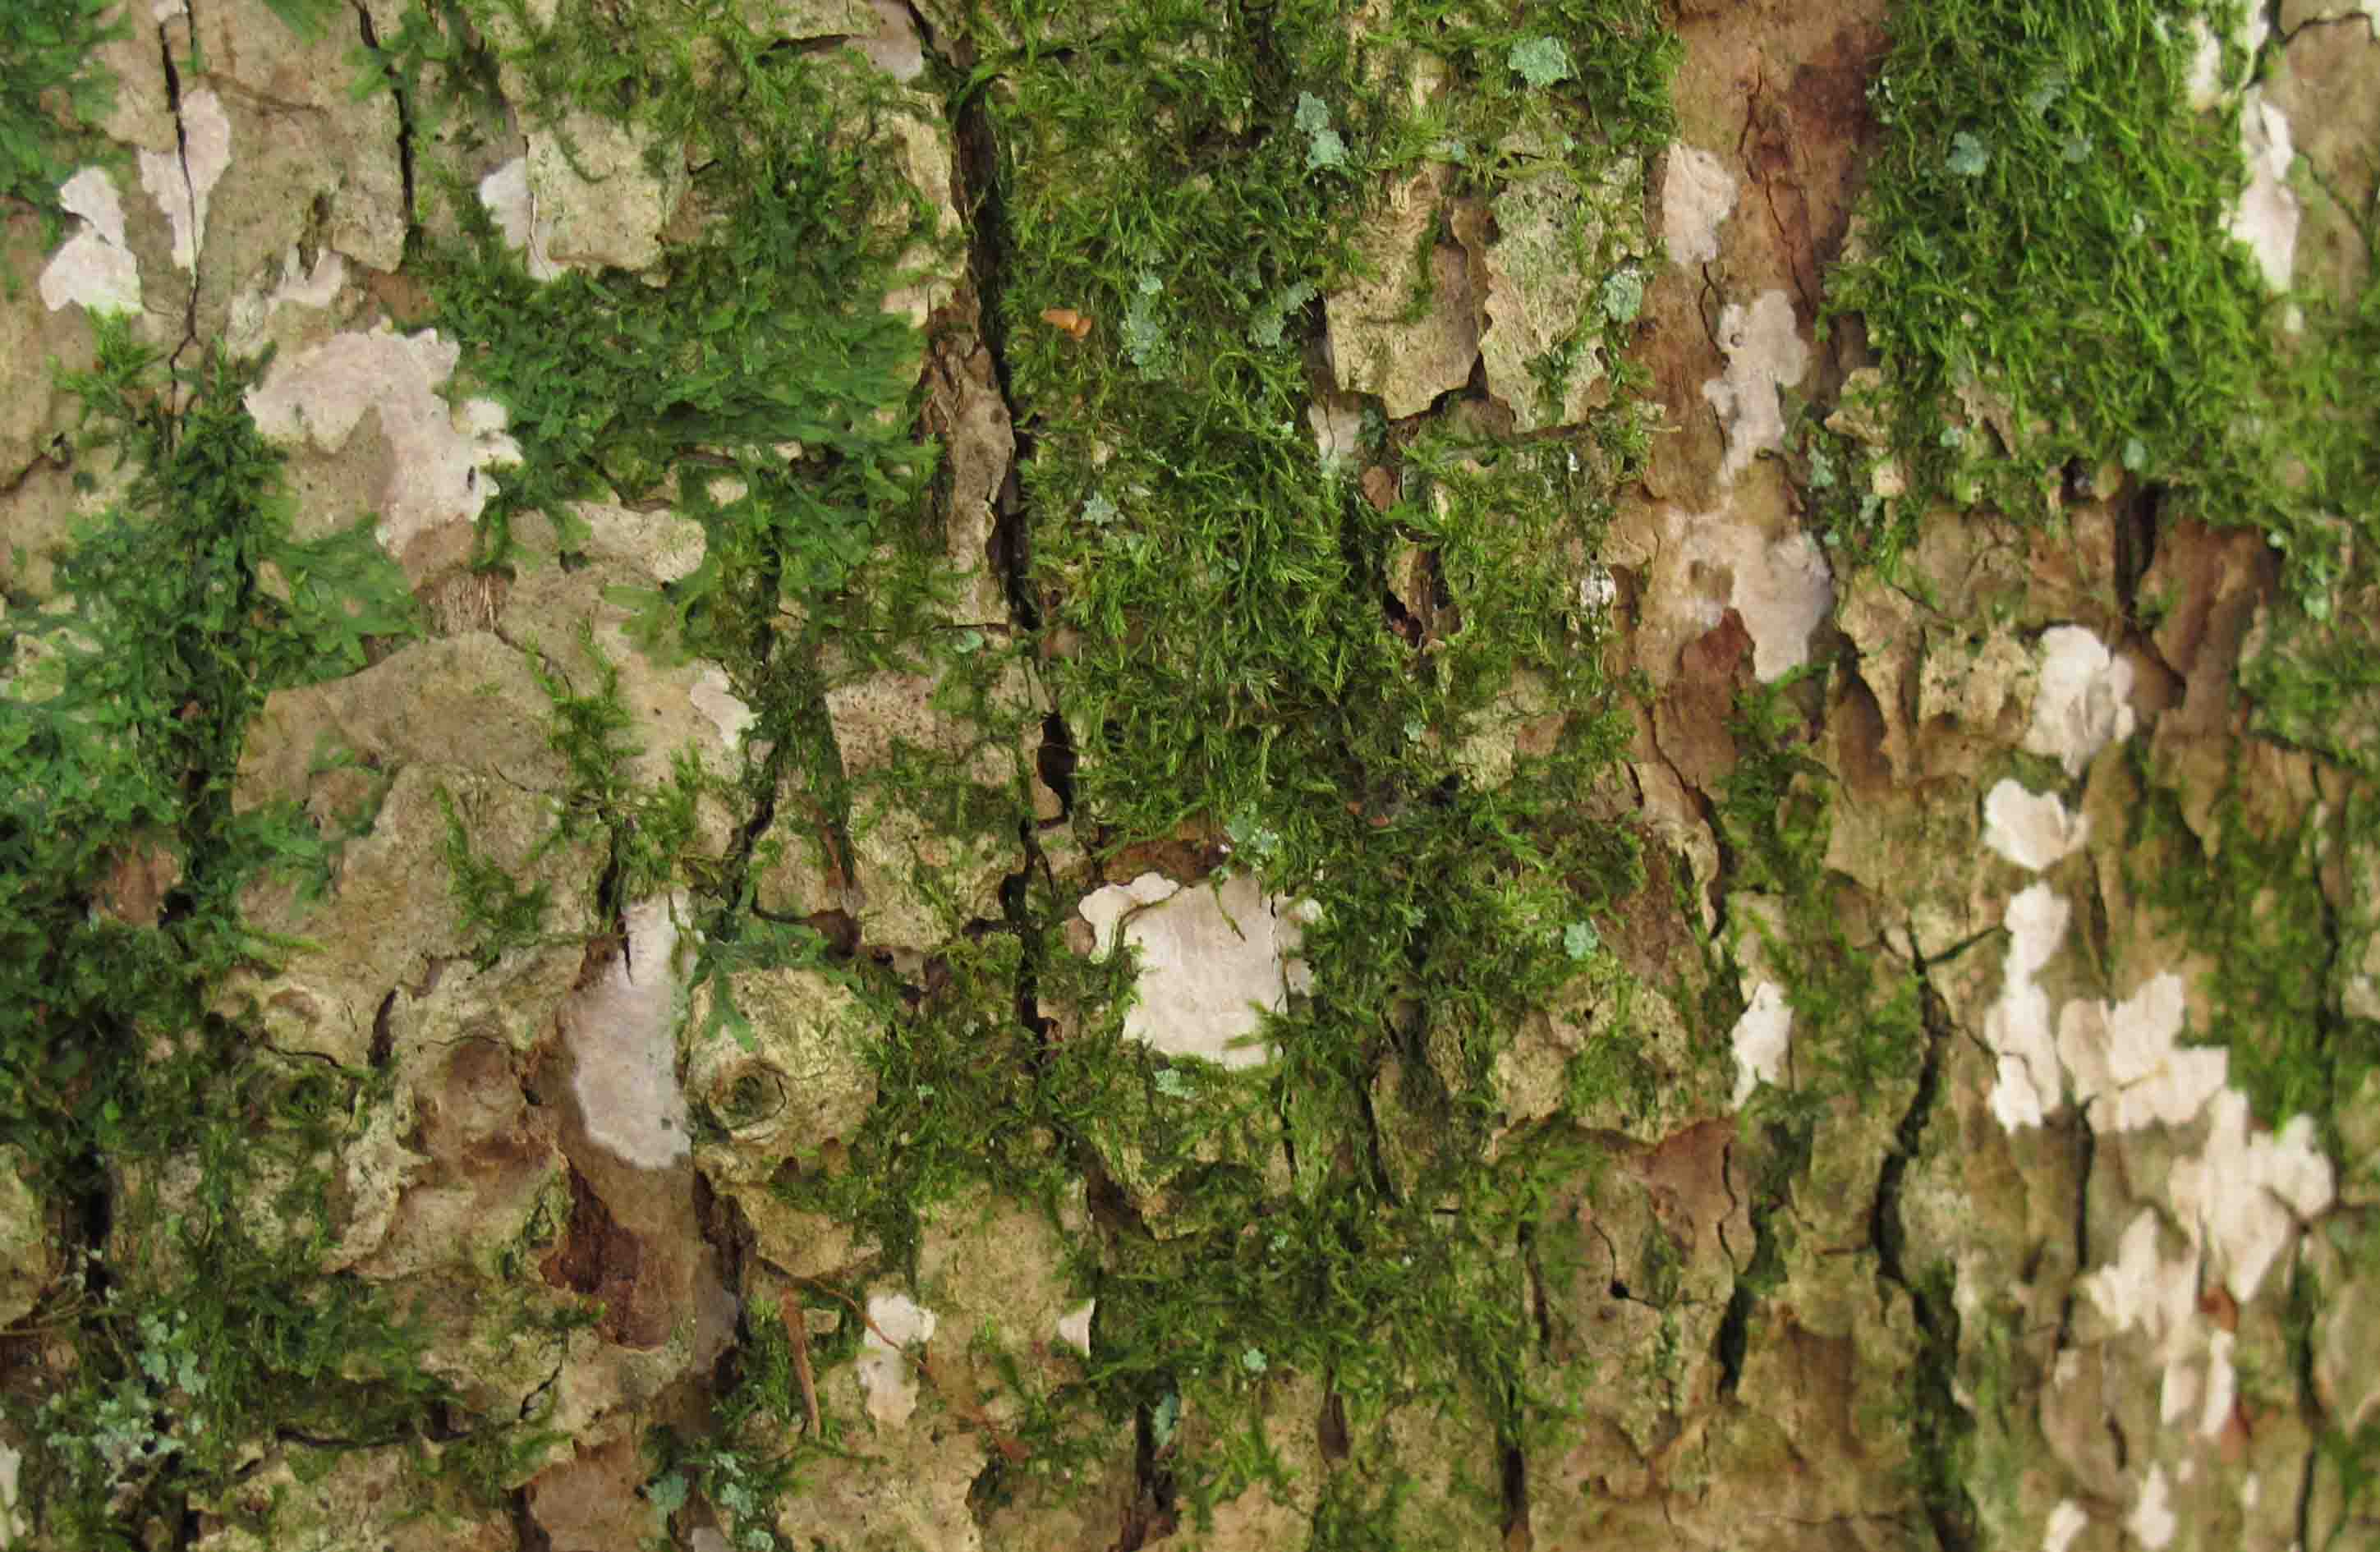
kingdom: Fungi
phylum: Basidiomycota
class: Agaricomycetes
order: Agaricales
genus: Dendrothele
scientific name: Dendrothele commixta
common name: ege-kalkplet
